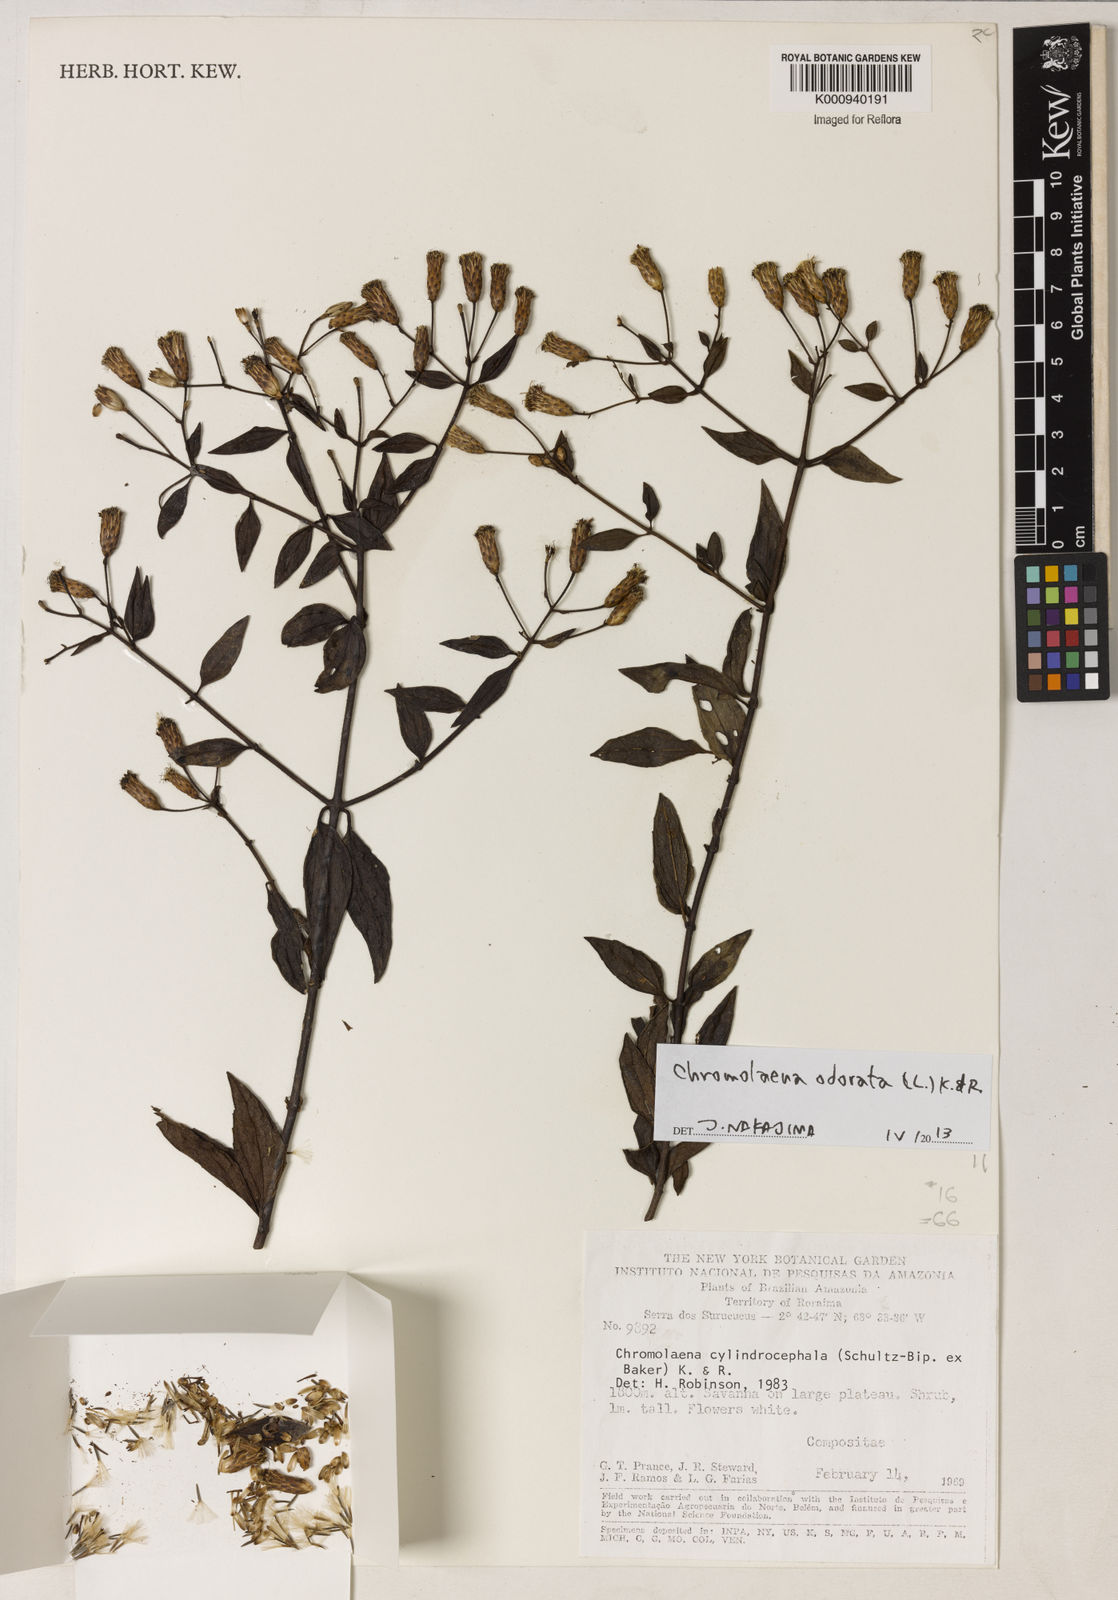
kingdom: Plantae
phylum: Tracheophyta
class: Magnoliopsida
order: Asterales
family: Asteraceae
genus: Chromolaena
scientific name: Chromolaena odorata
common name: Siamweed
